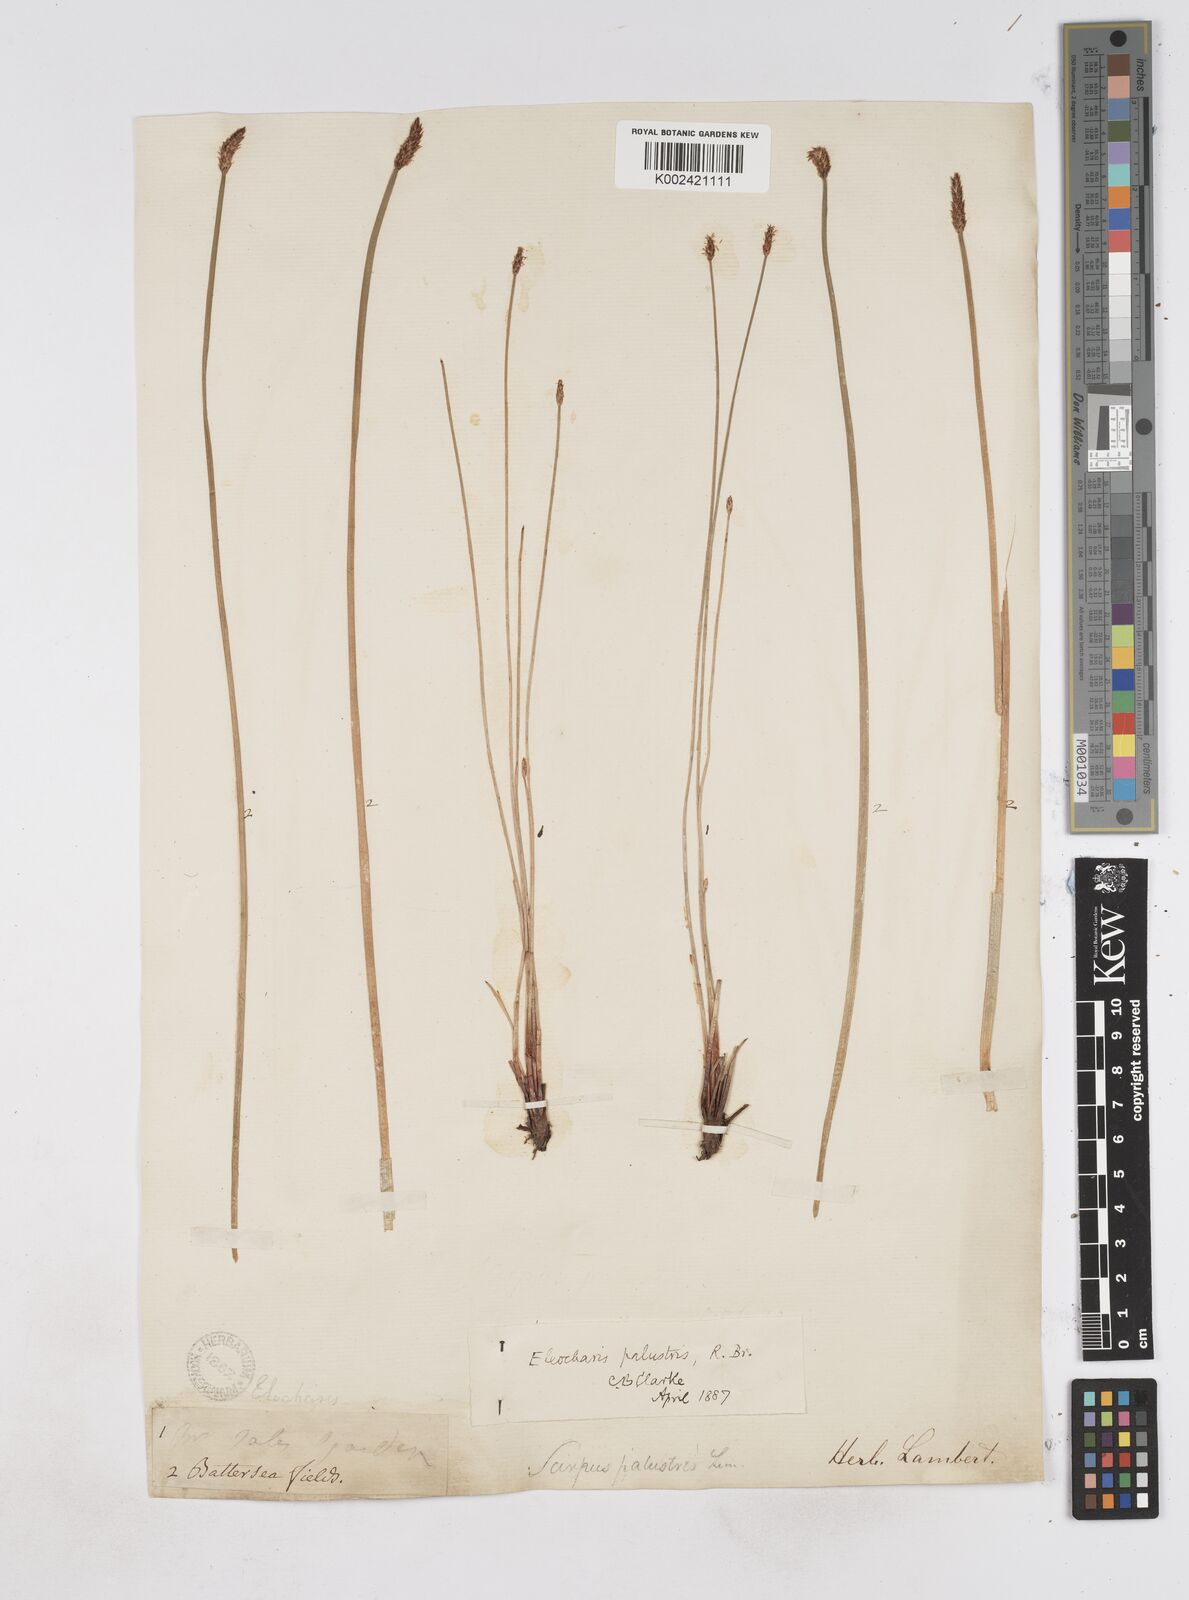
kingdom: Plantae
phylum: Tracheophyta
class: Liliopsida
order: Poales
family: Cyperaceae
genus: Eleocharis
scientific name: Eleocharis palustris
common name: Common spike-rush
